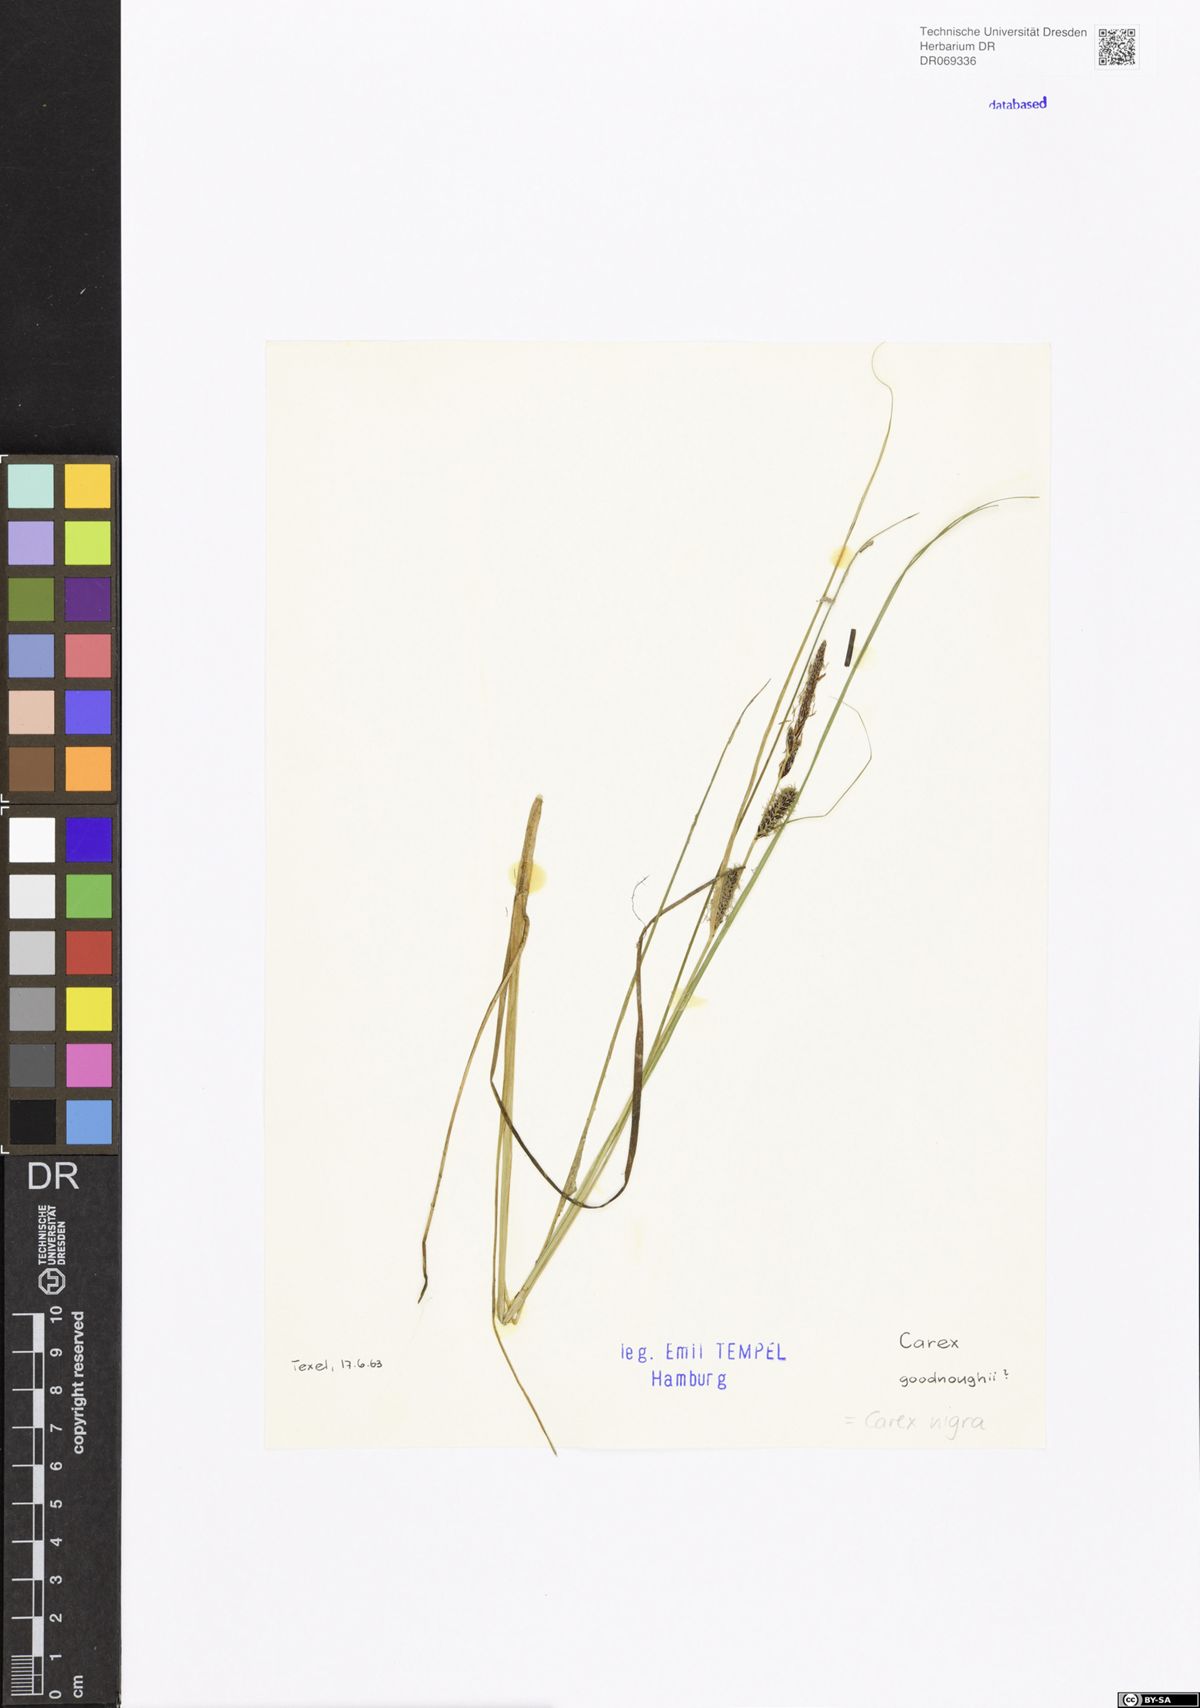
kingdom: Plantae
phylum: Tracheophyta
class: Liliopsida
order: Poales
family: Cyperaceae
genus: Carex
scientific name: Carex nigra
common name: Common sedge
